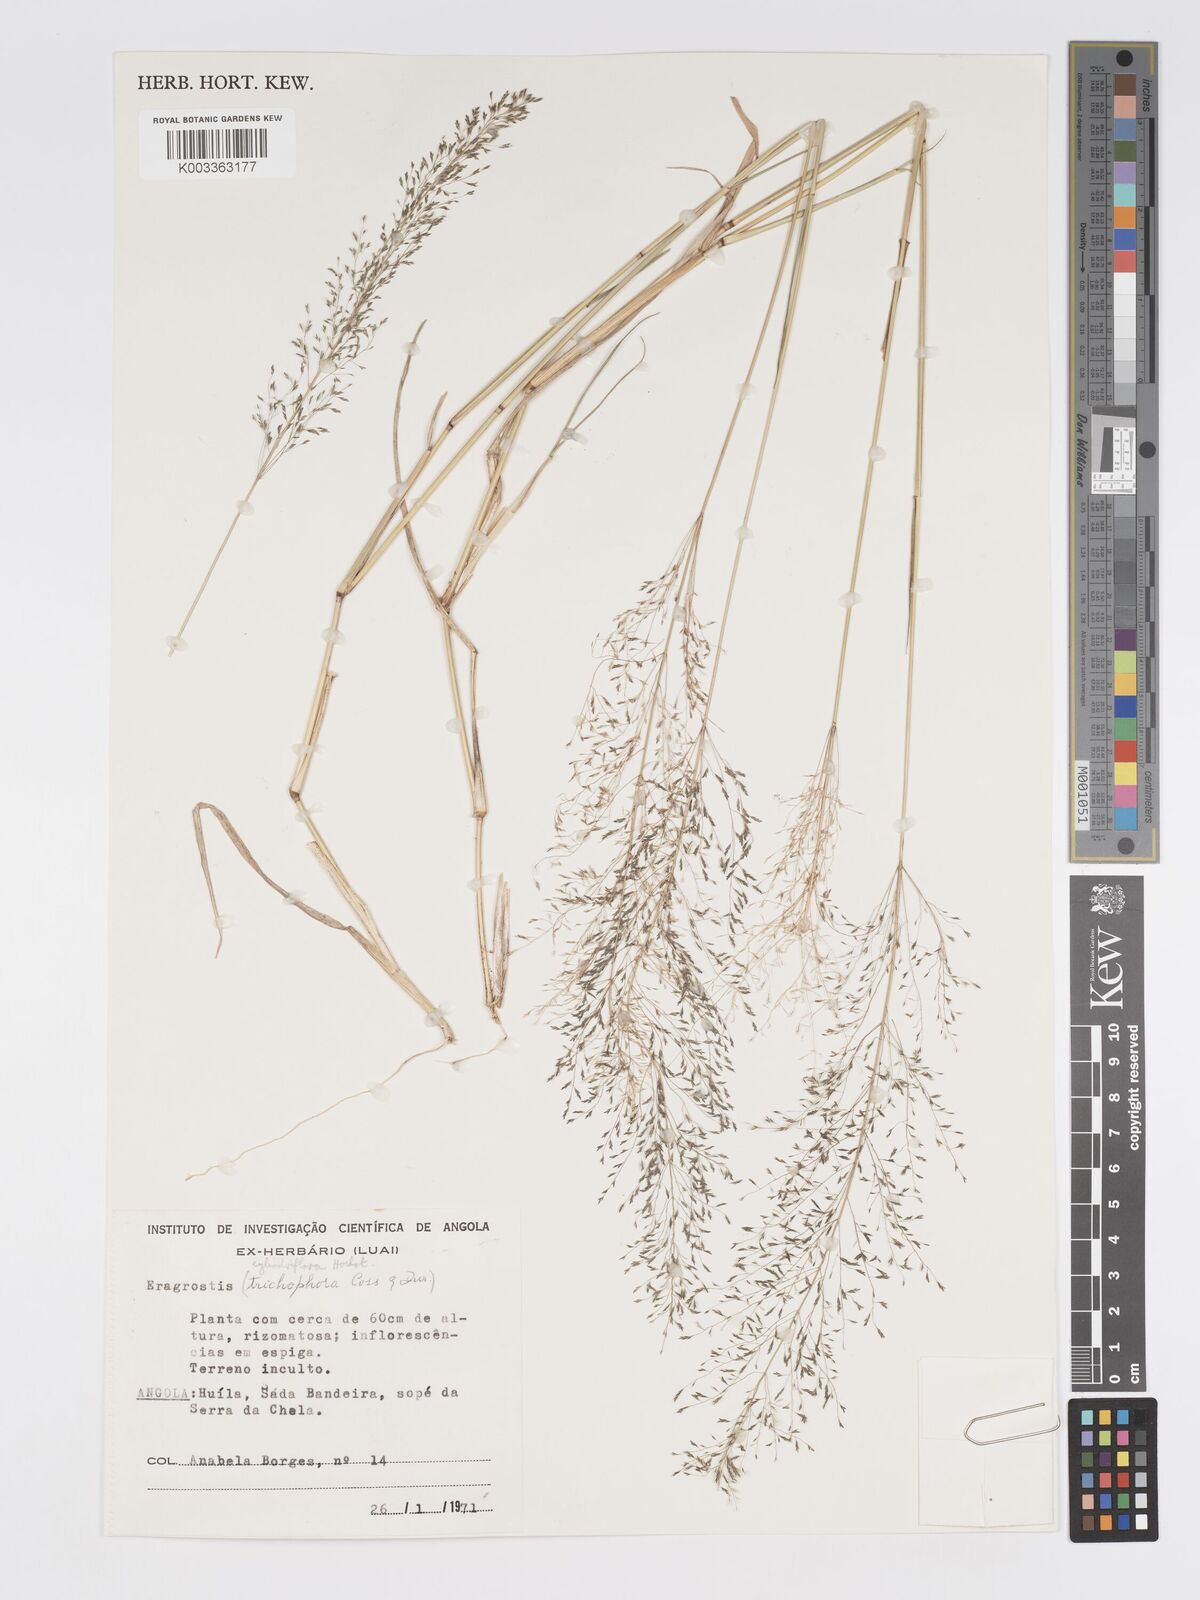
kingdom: Plantae
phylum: Tracheophyta
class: Liliopsida
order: Poales
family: Poaceae
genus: Eragrostis
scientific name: Eragrostis cylindriflora
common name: Cylinderflower lovegrass
